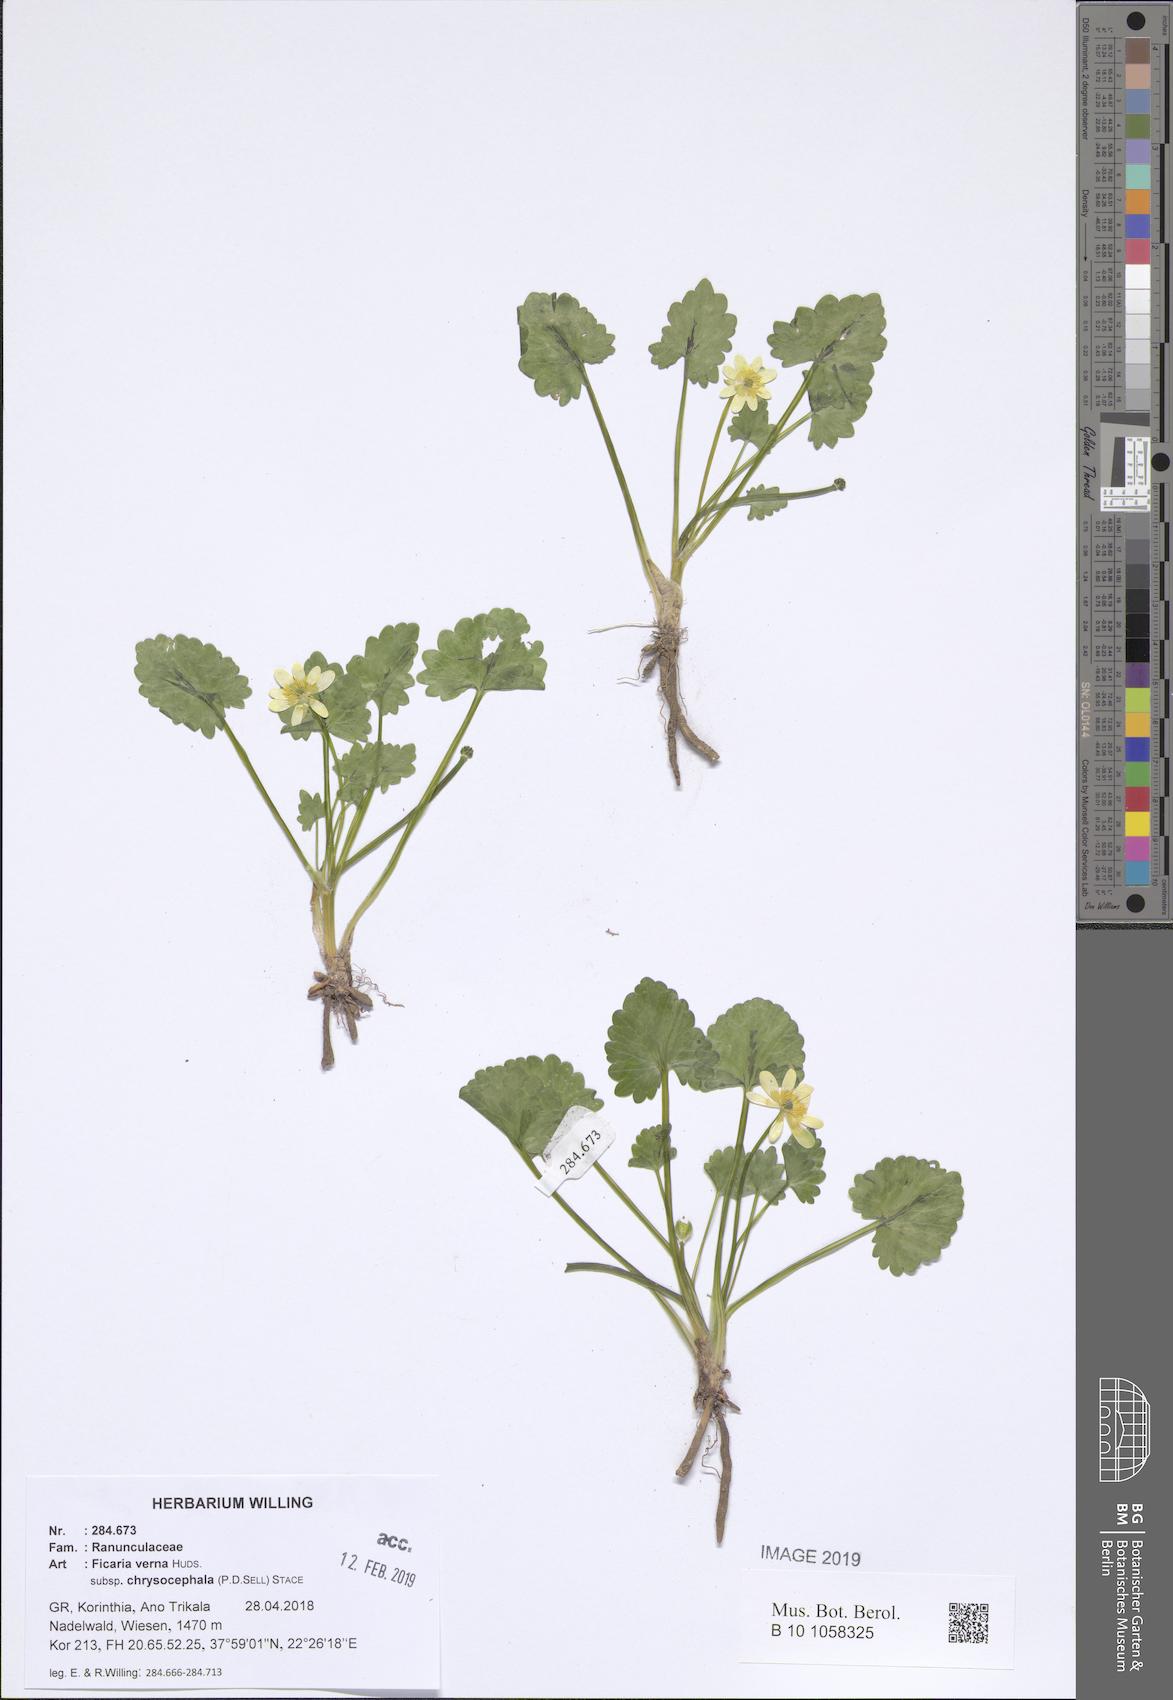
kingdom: Plantae
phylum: Tracheophyta
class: Magnoliopsida
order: Ranunculales
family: Ranunculaceae
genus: Ficaria
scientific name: Ficaria chrysocephala
